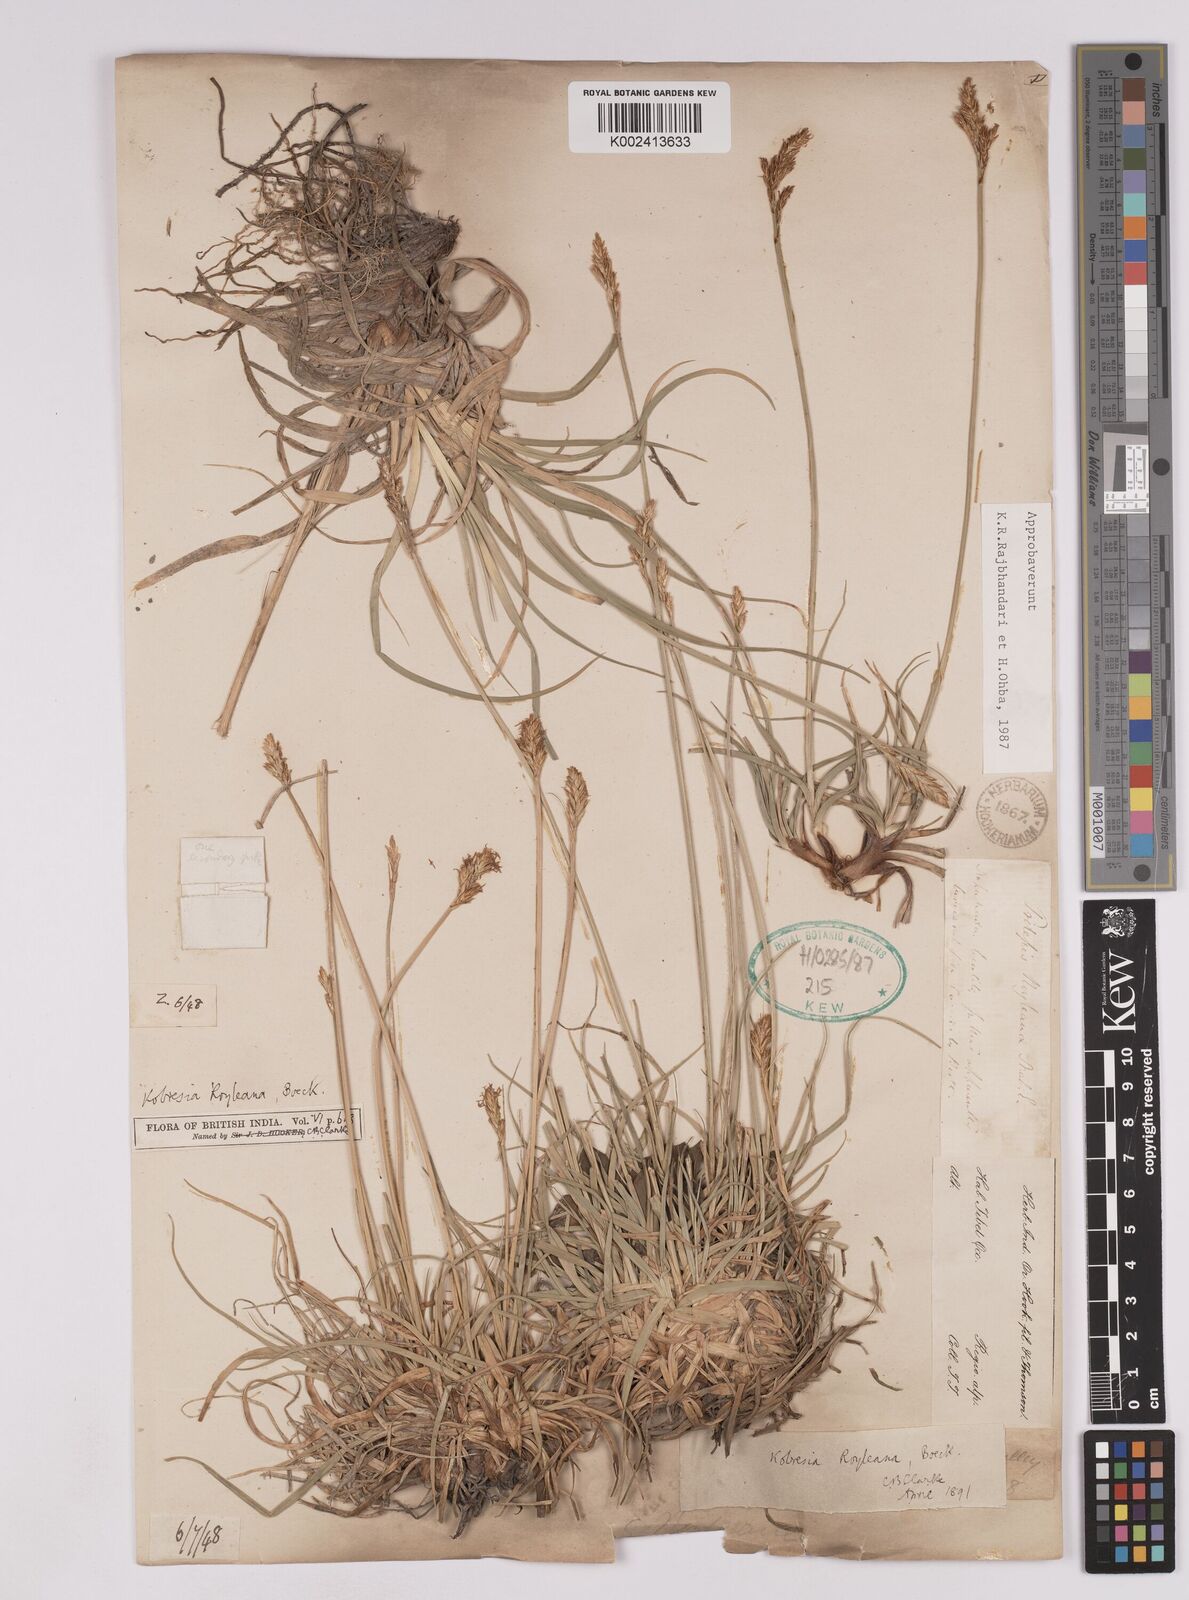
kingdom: Plantae
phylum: Tracheophyta
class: Liliopsida
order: Poales
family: Cyperaceae
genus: Carex
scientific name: Carex kokanica
